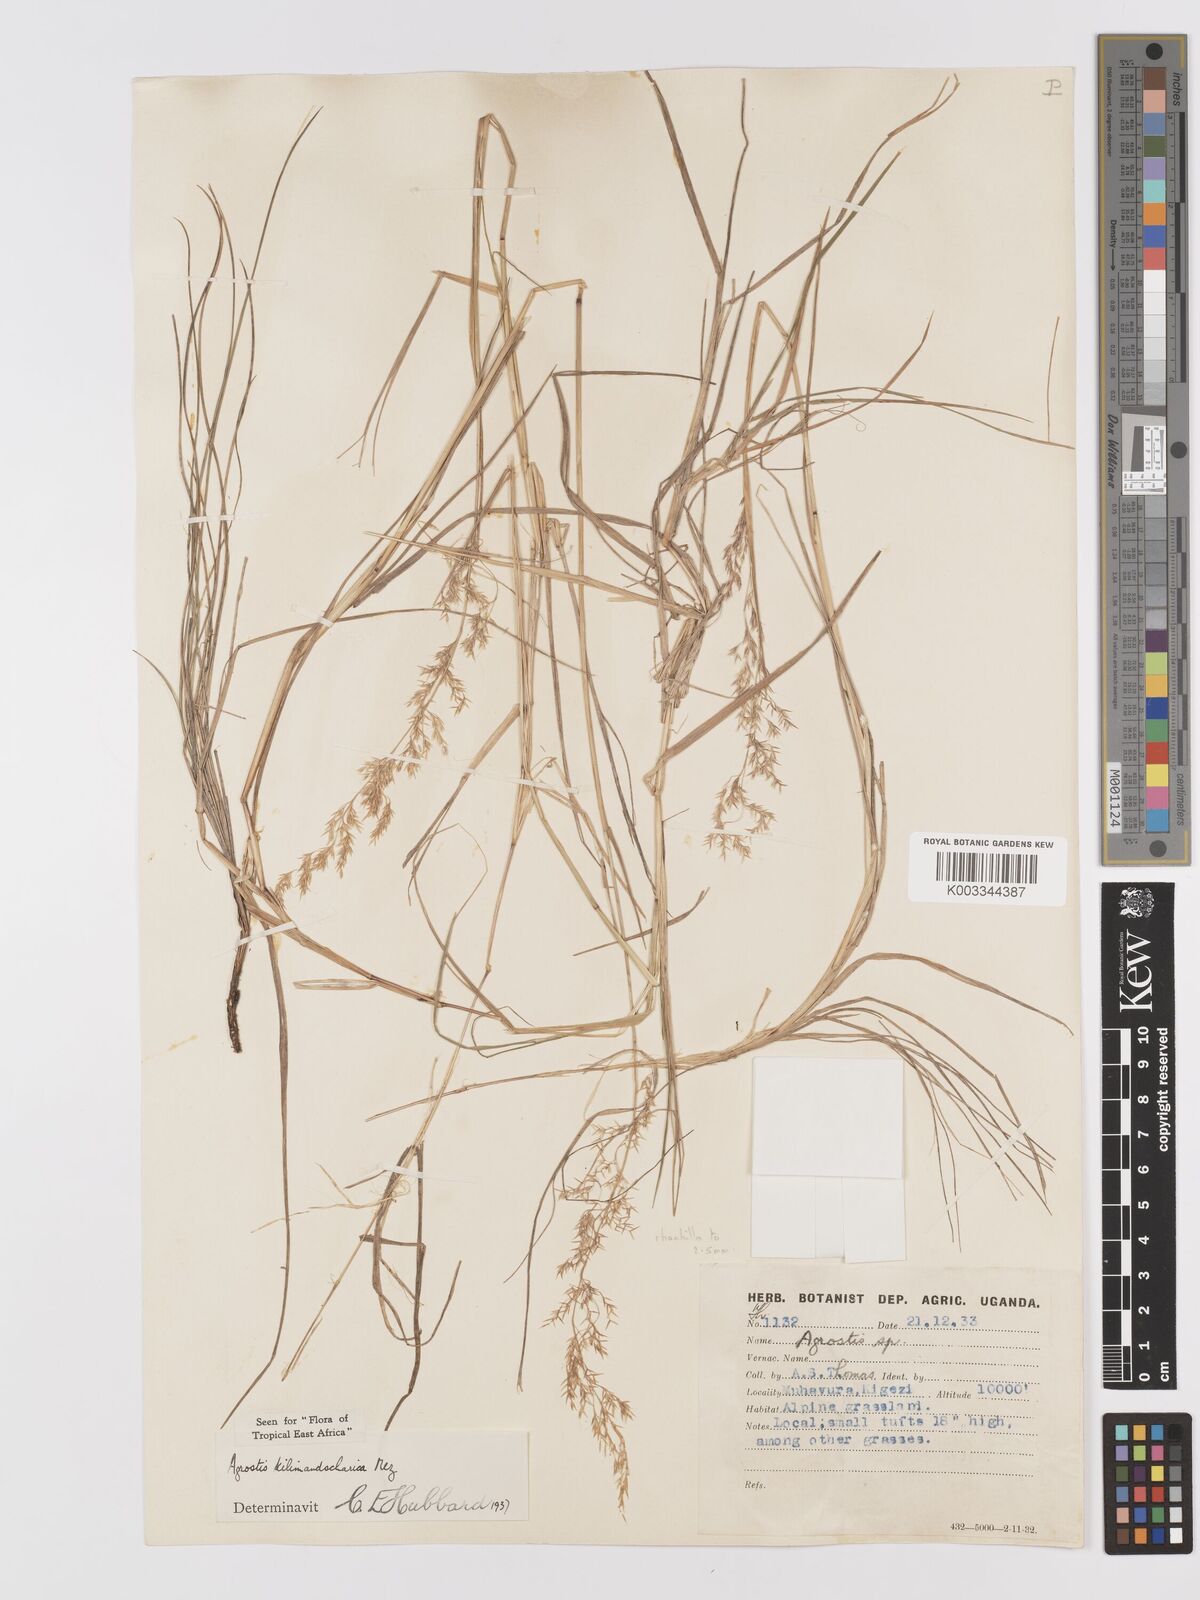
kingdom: Plantae
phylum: Tracheophyta
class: Liliopsida
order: Poales
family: Poaceae
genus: Agrostis
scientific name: Agrostis kilimandscharica
